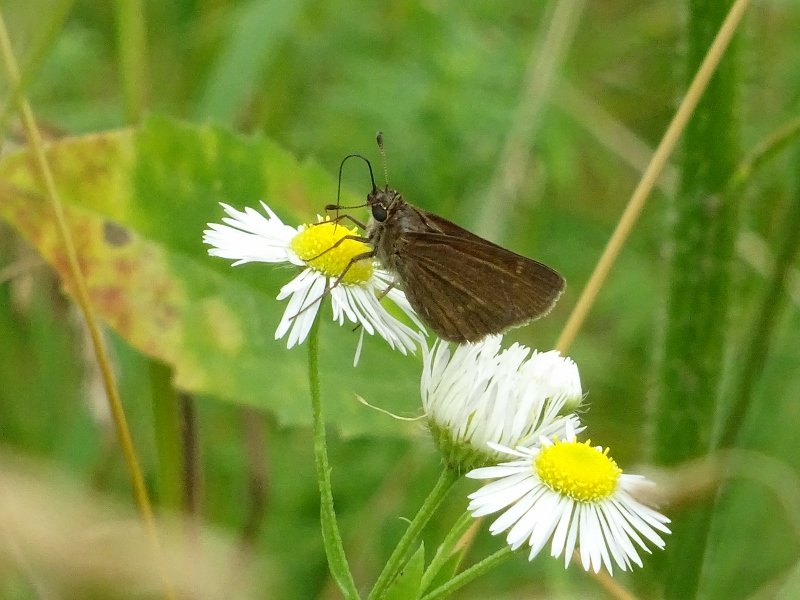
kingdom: Animalia
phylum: Arthropoda
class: Insecta
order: Lepidoptera
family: Hesperiidae
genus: Euphyes
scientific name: Euphyes
